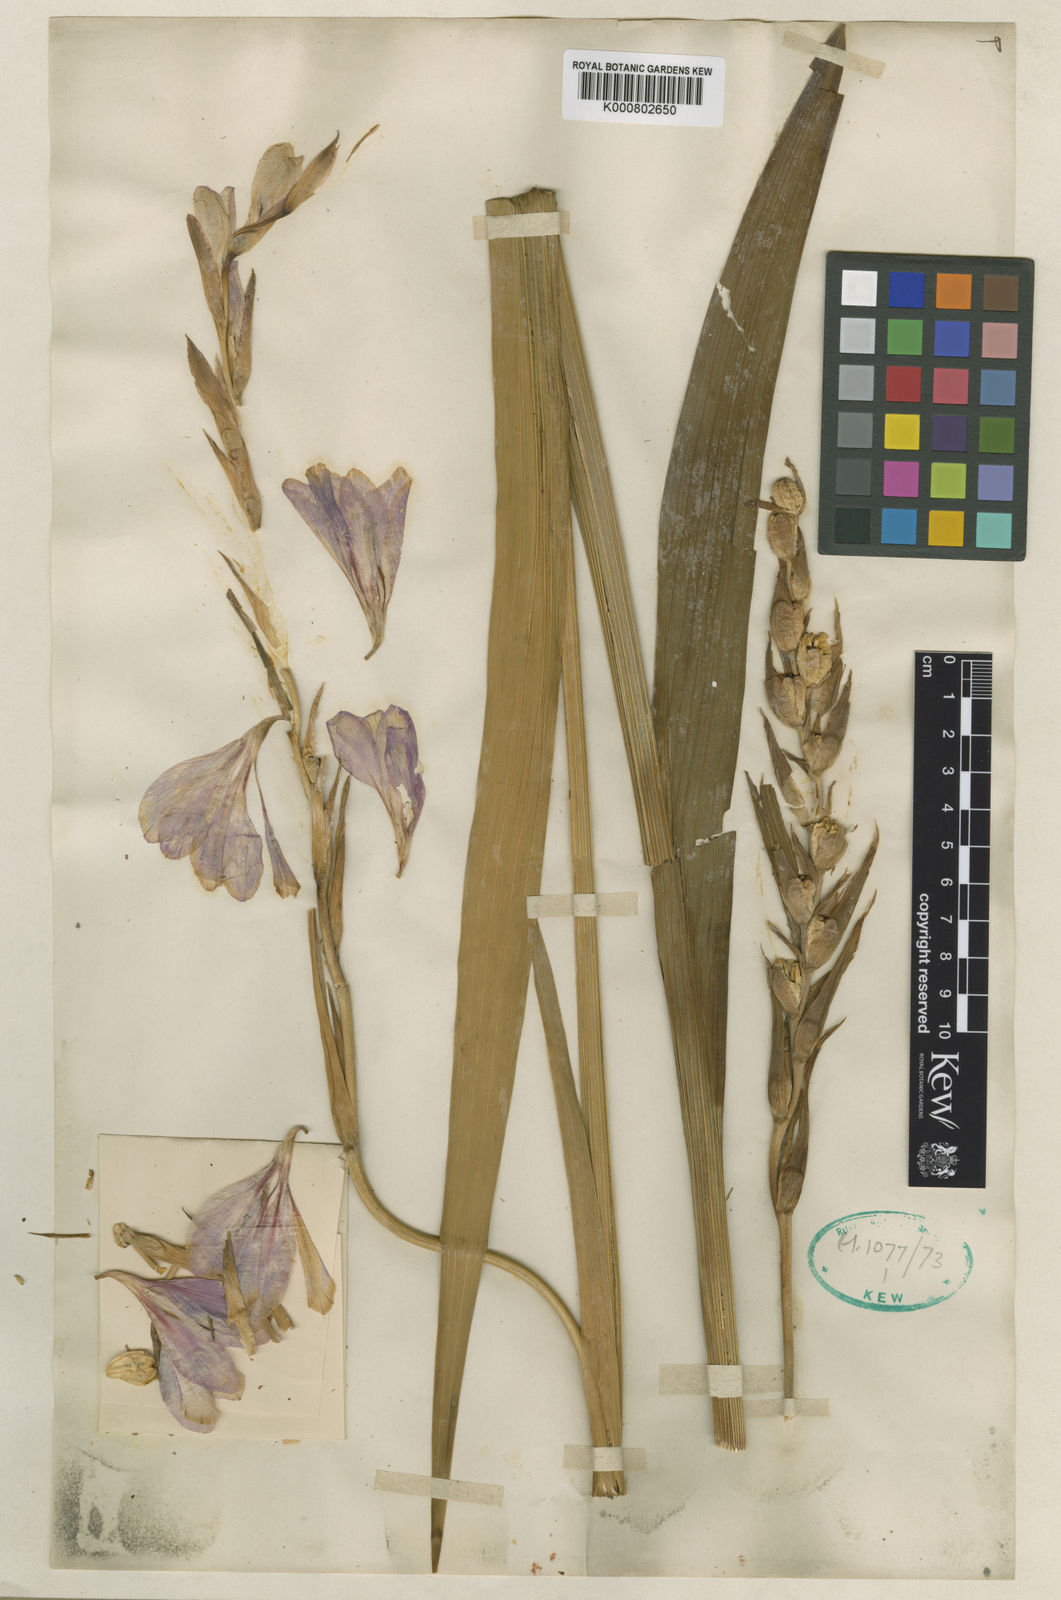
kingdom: Plantae
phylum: Tracheophyta
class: Liliopsida
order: Asparagales
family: Iridaceae
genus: Gladiolus
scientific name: Gladiolus italicus
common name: Field gladiolus
